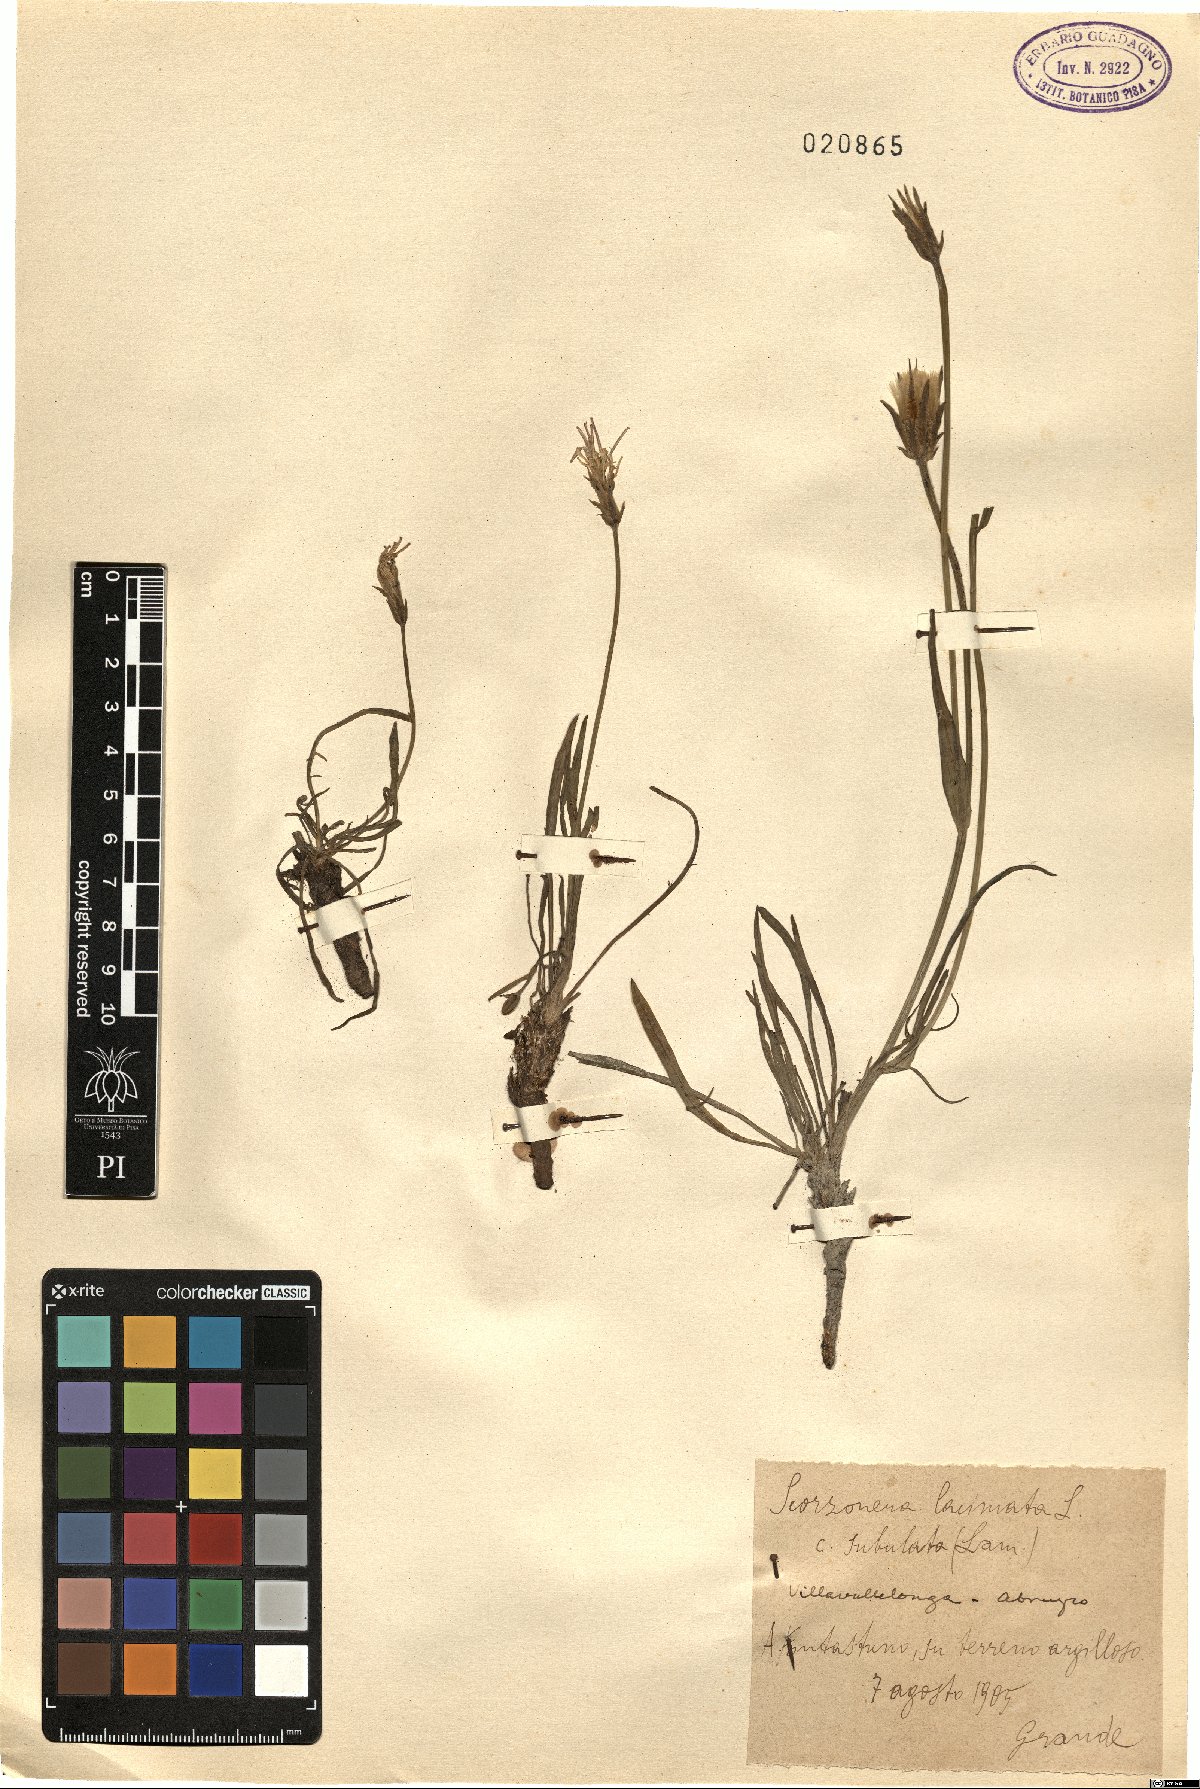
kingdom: Plantae
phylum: Tracheophyta
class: Magnoliopsida
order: Asterales
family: Asteraceae
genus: Scorzonera
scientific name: Scorzonera laciniata
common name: Cutleaf vipergrass
